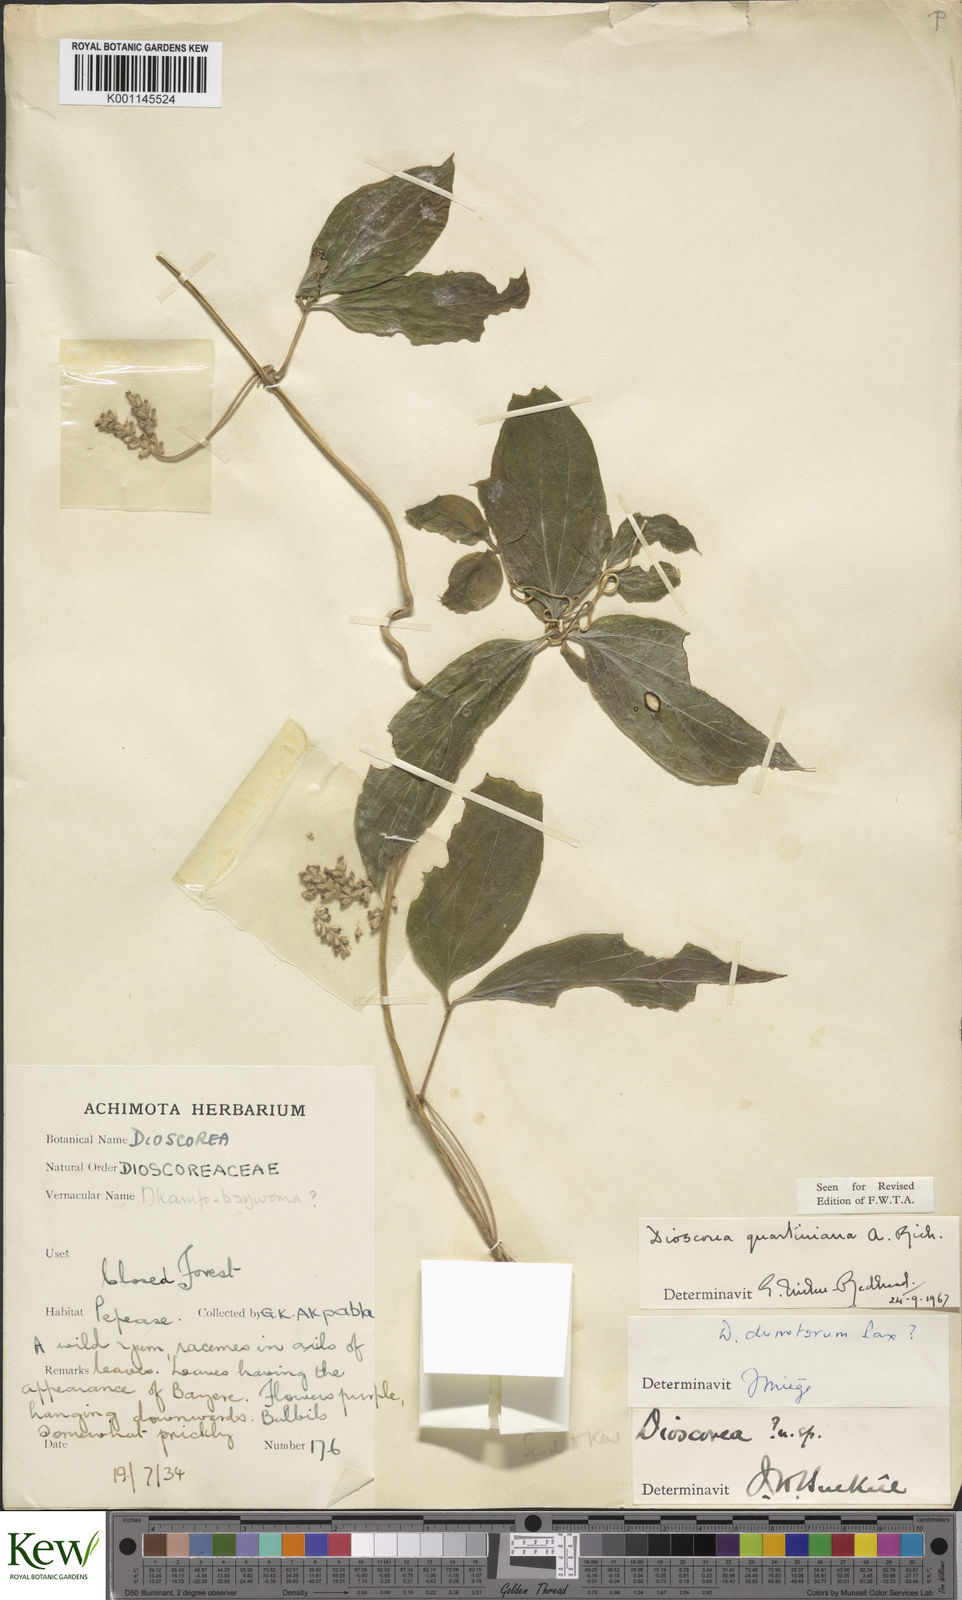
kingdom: Plantae
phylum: Tracheophyta
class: Liliopsida
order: Dioscoreales
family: Dioscoreaceae
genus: Dioscorea
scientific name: Dioscorea quartiniana
